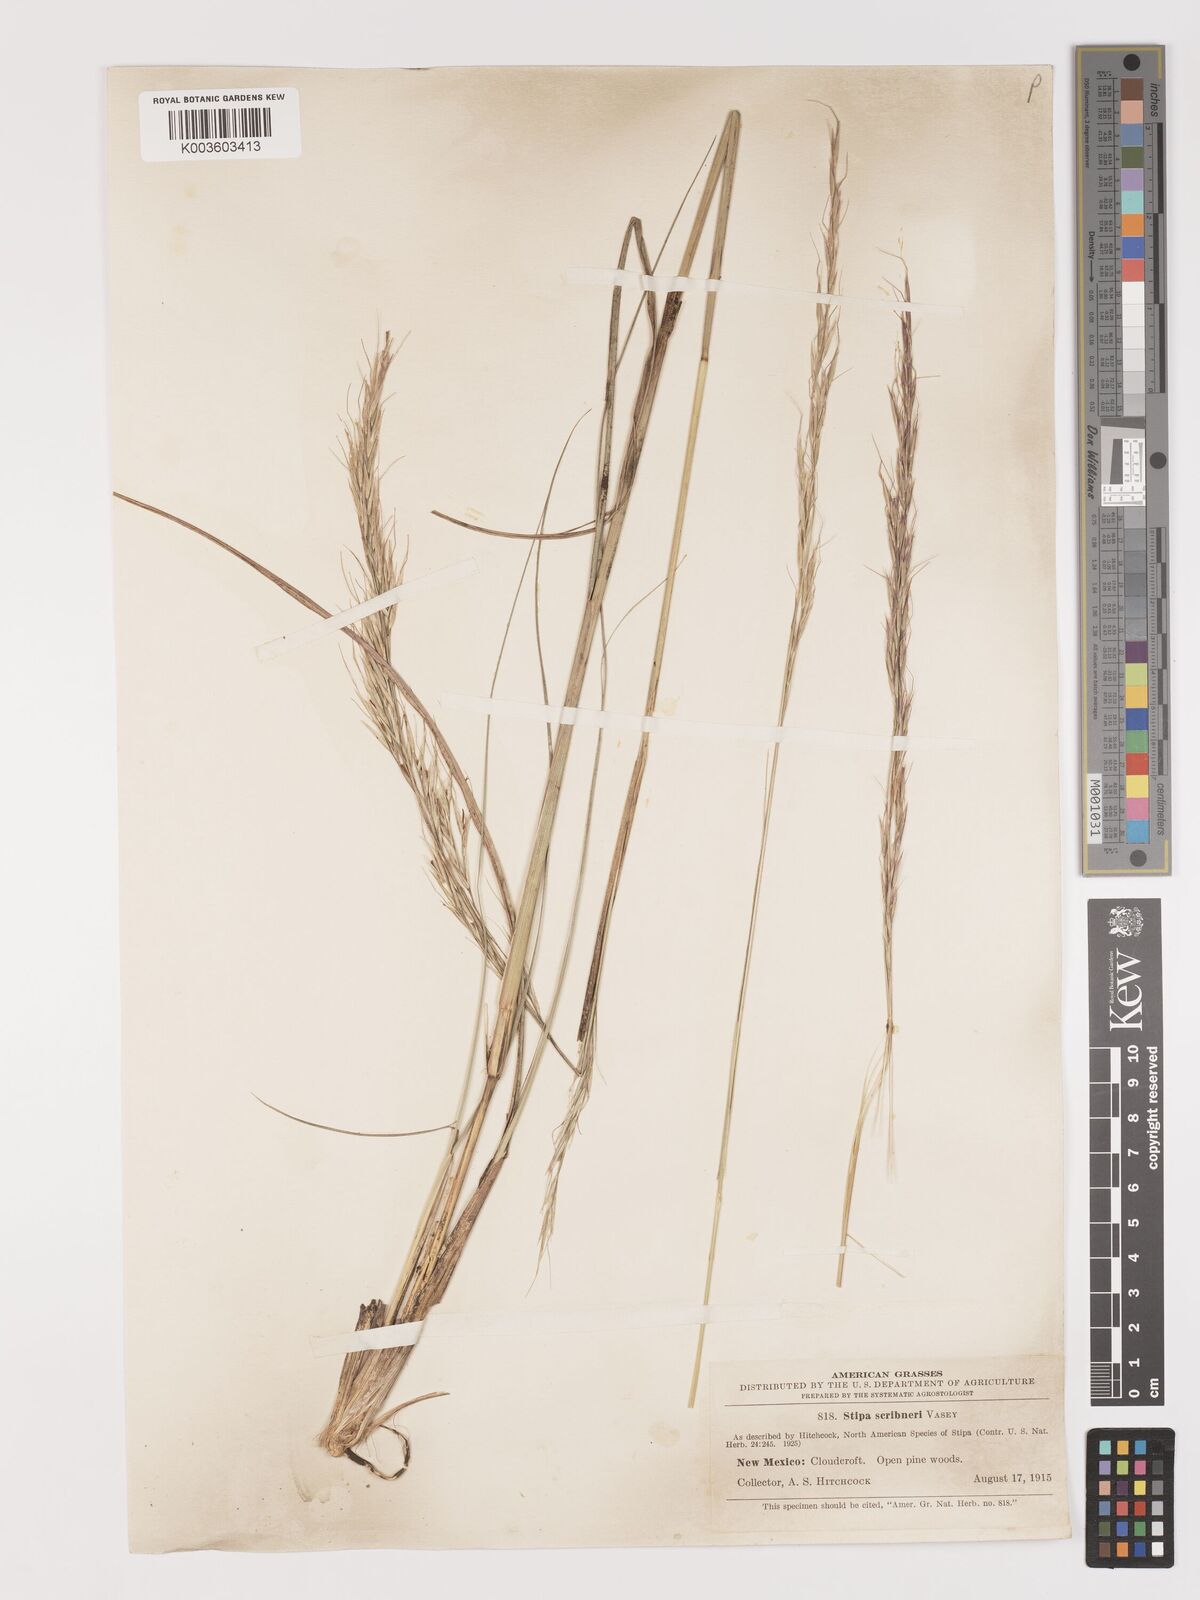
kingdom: Plantae
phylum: Tracheophyta
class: Liliopsida
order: Poales
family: Poaceae
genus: Eriocoma
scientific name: Eriocoma scribneri
